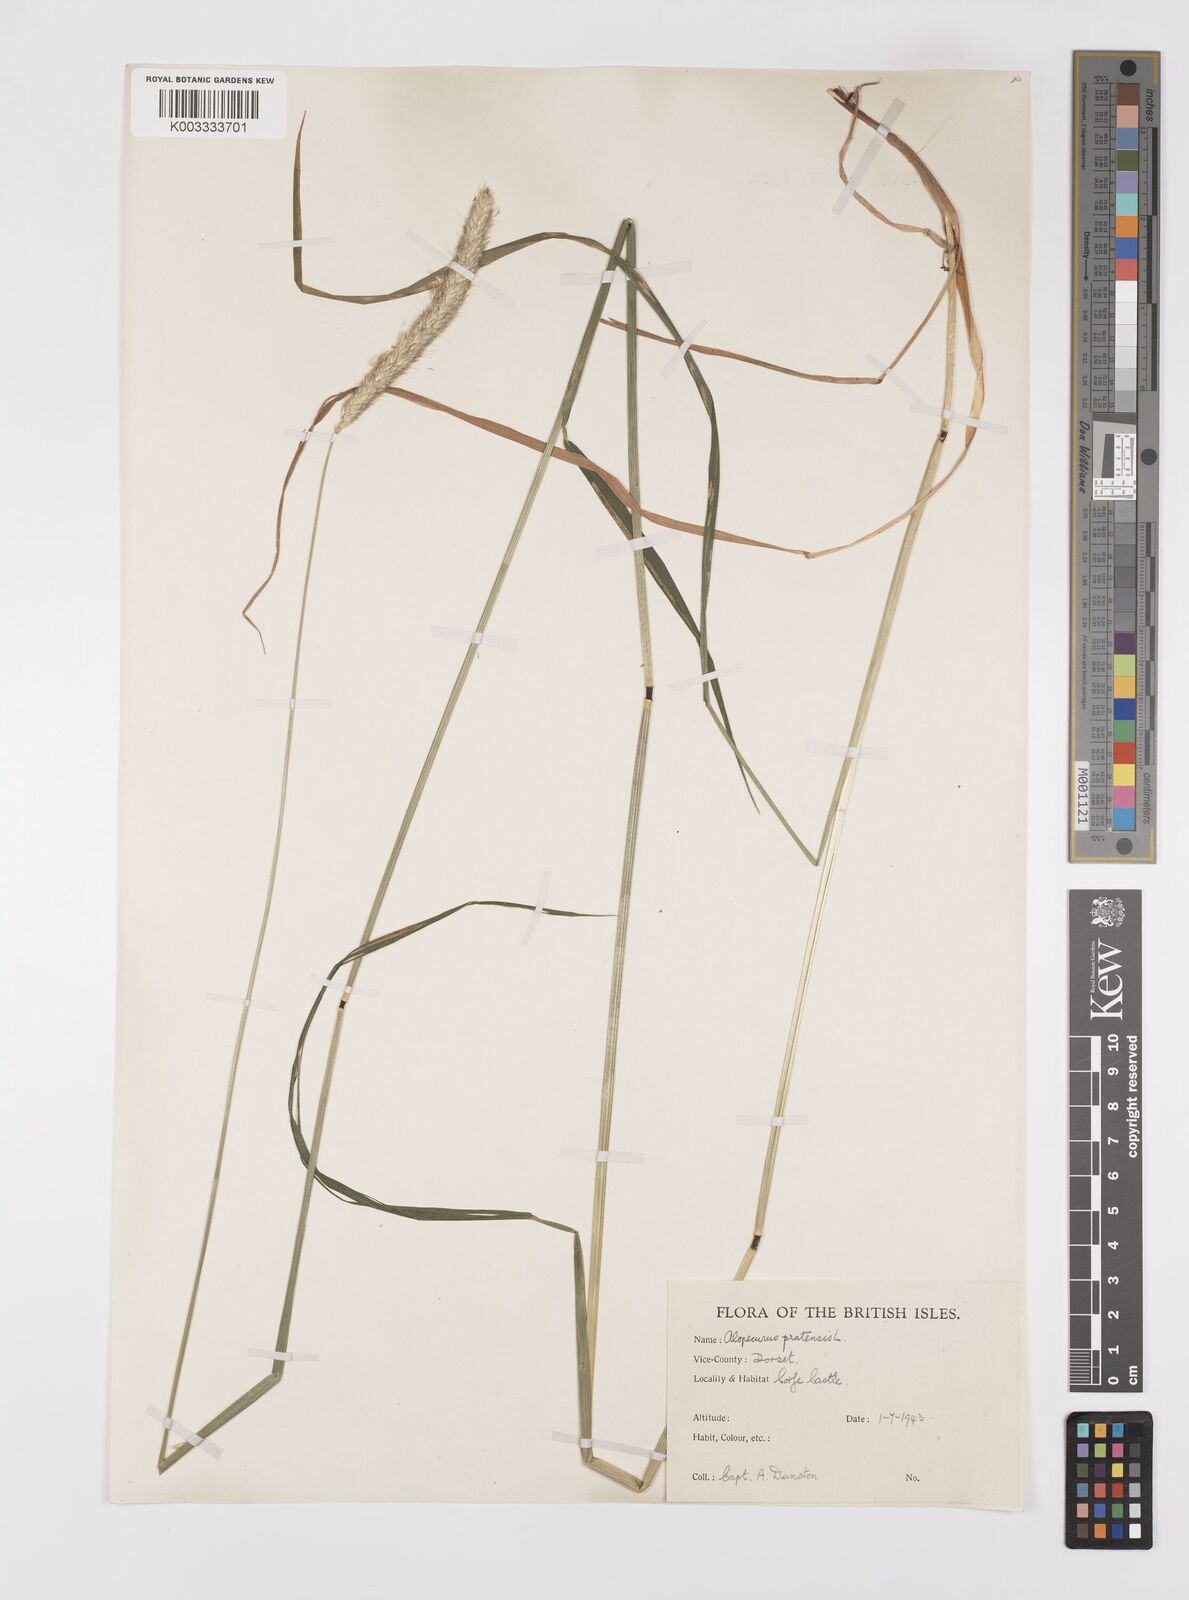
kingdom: Plantae
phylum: Tracheophyta
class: Liliopsida
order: Poales
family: Poaceae
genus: Alopecurus
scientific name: Alopecurus pratensis
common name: Meadow foxtail
